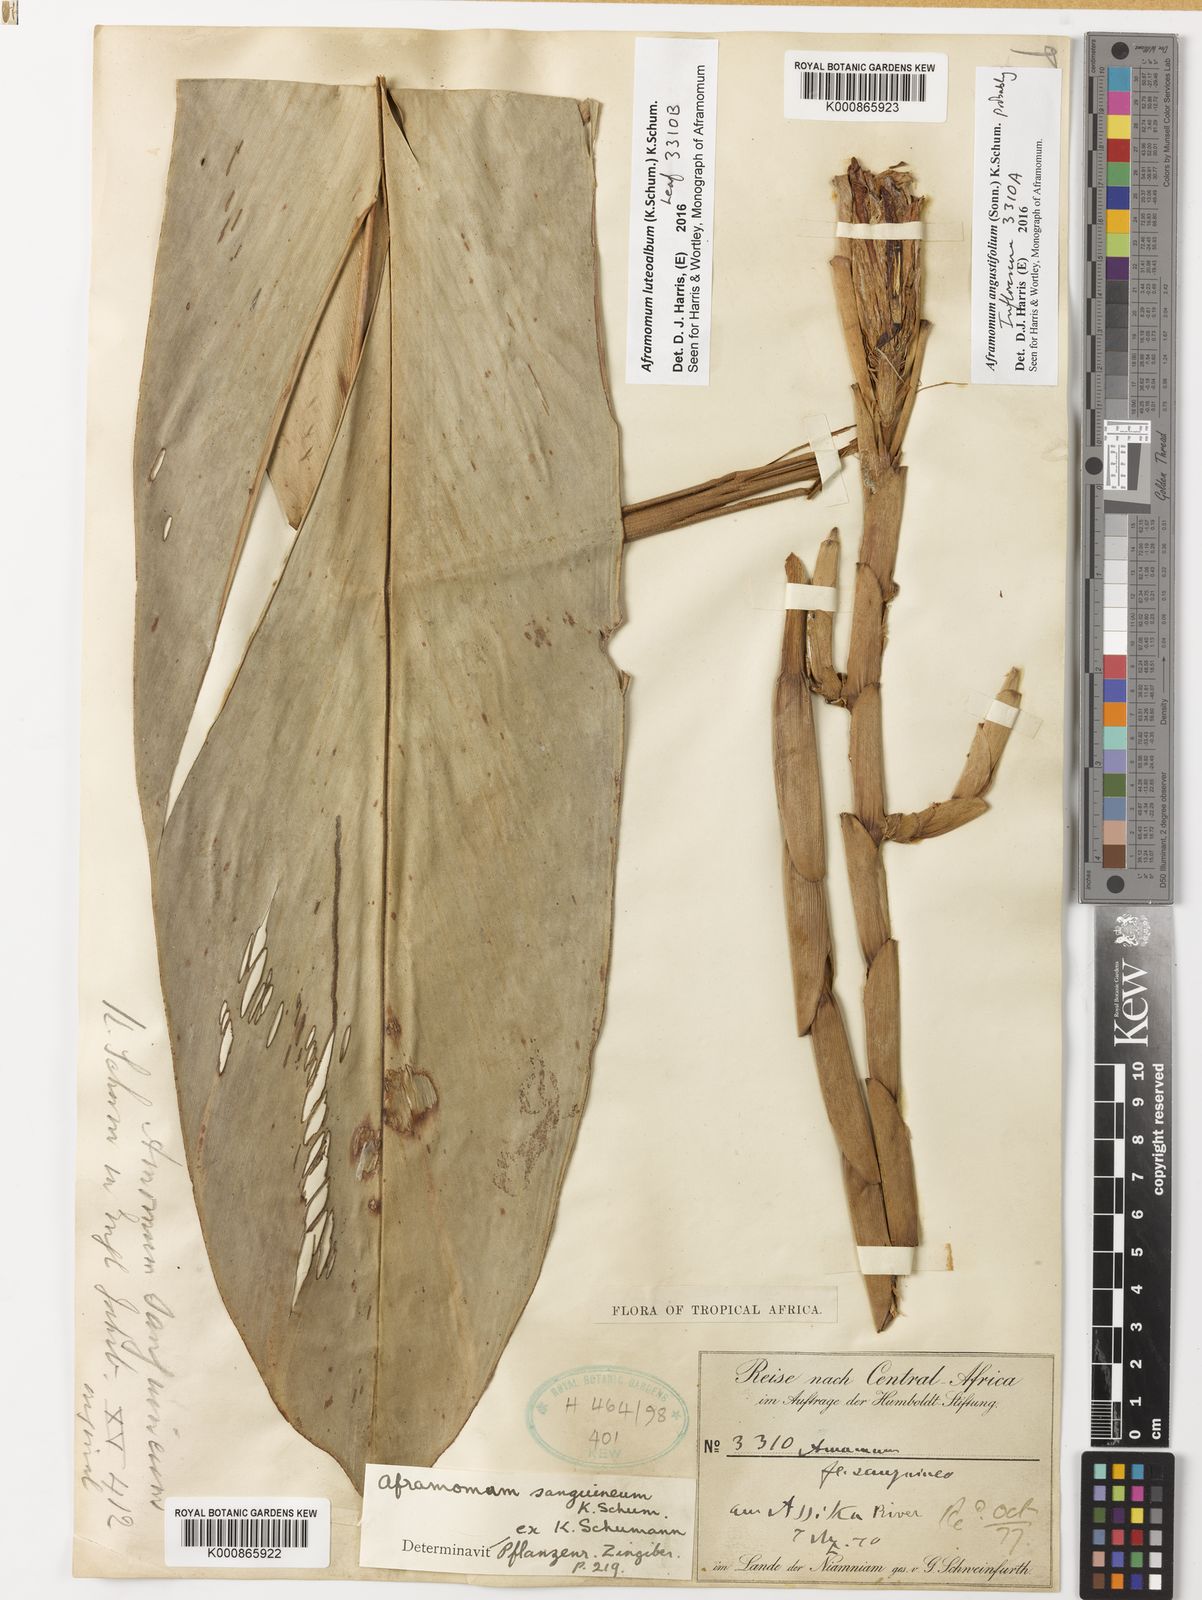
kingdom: Plantae
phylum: Tracheophyta
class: Liliopsida
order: Zingiberales
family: Zingiberaceae
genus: Aframomum
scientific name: Aframomum angustifolium
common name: Guinea grains
